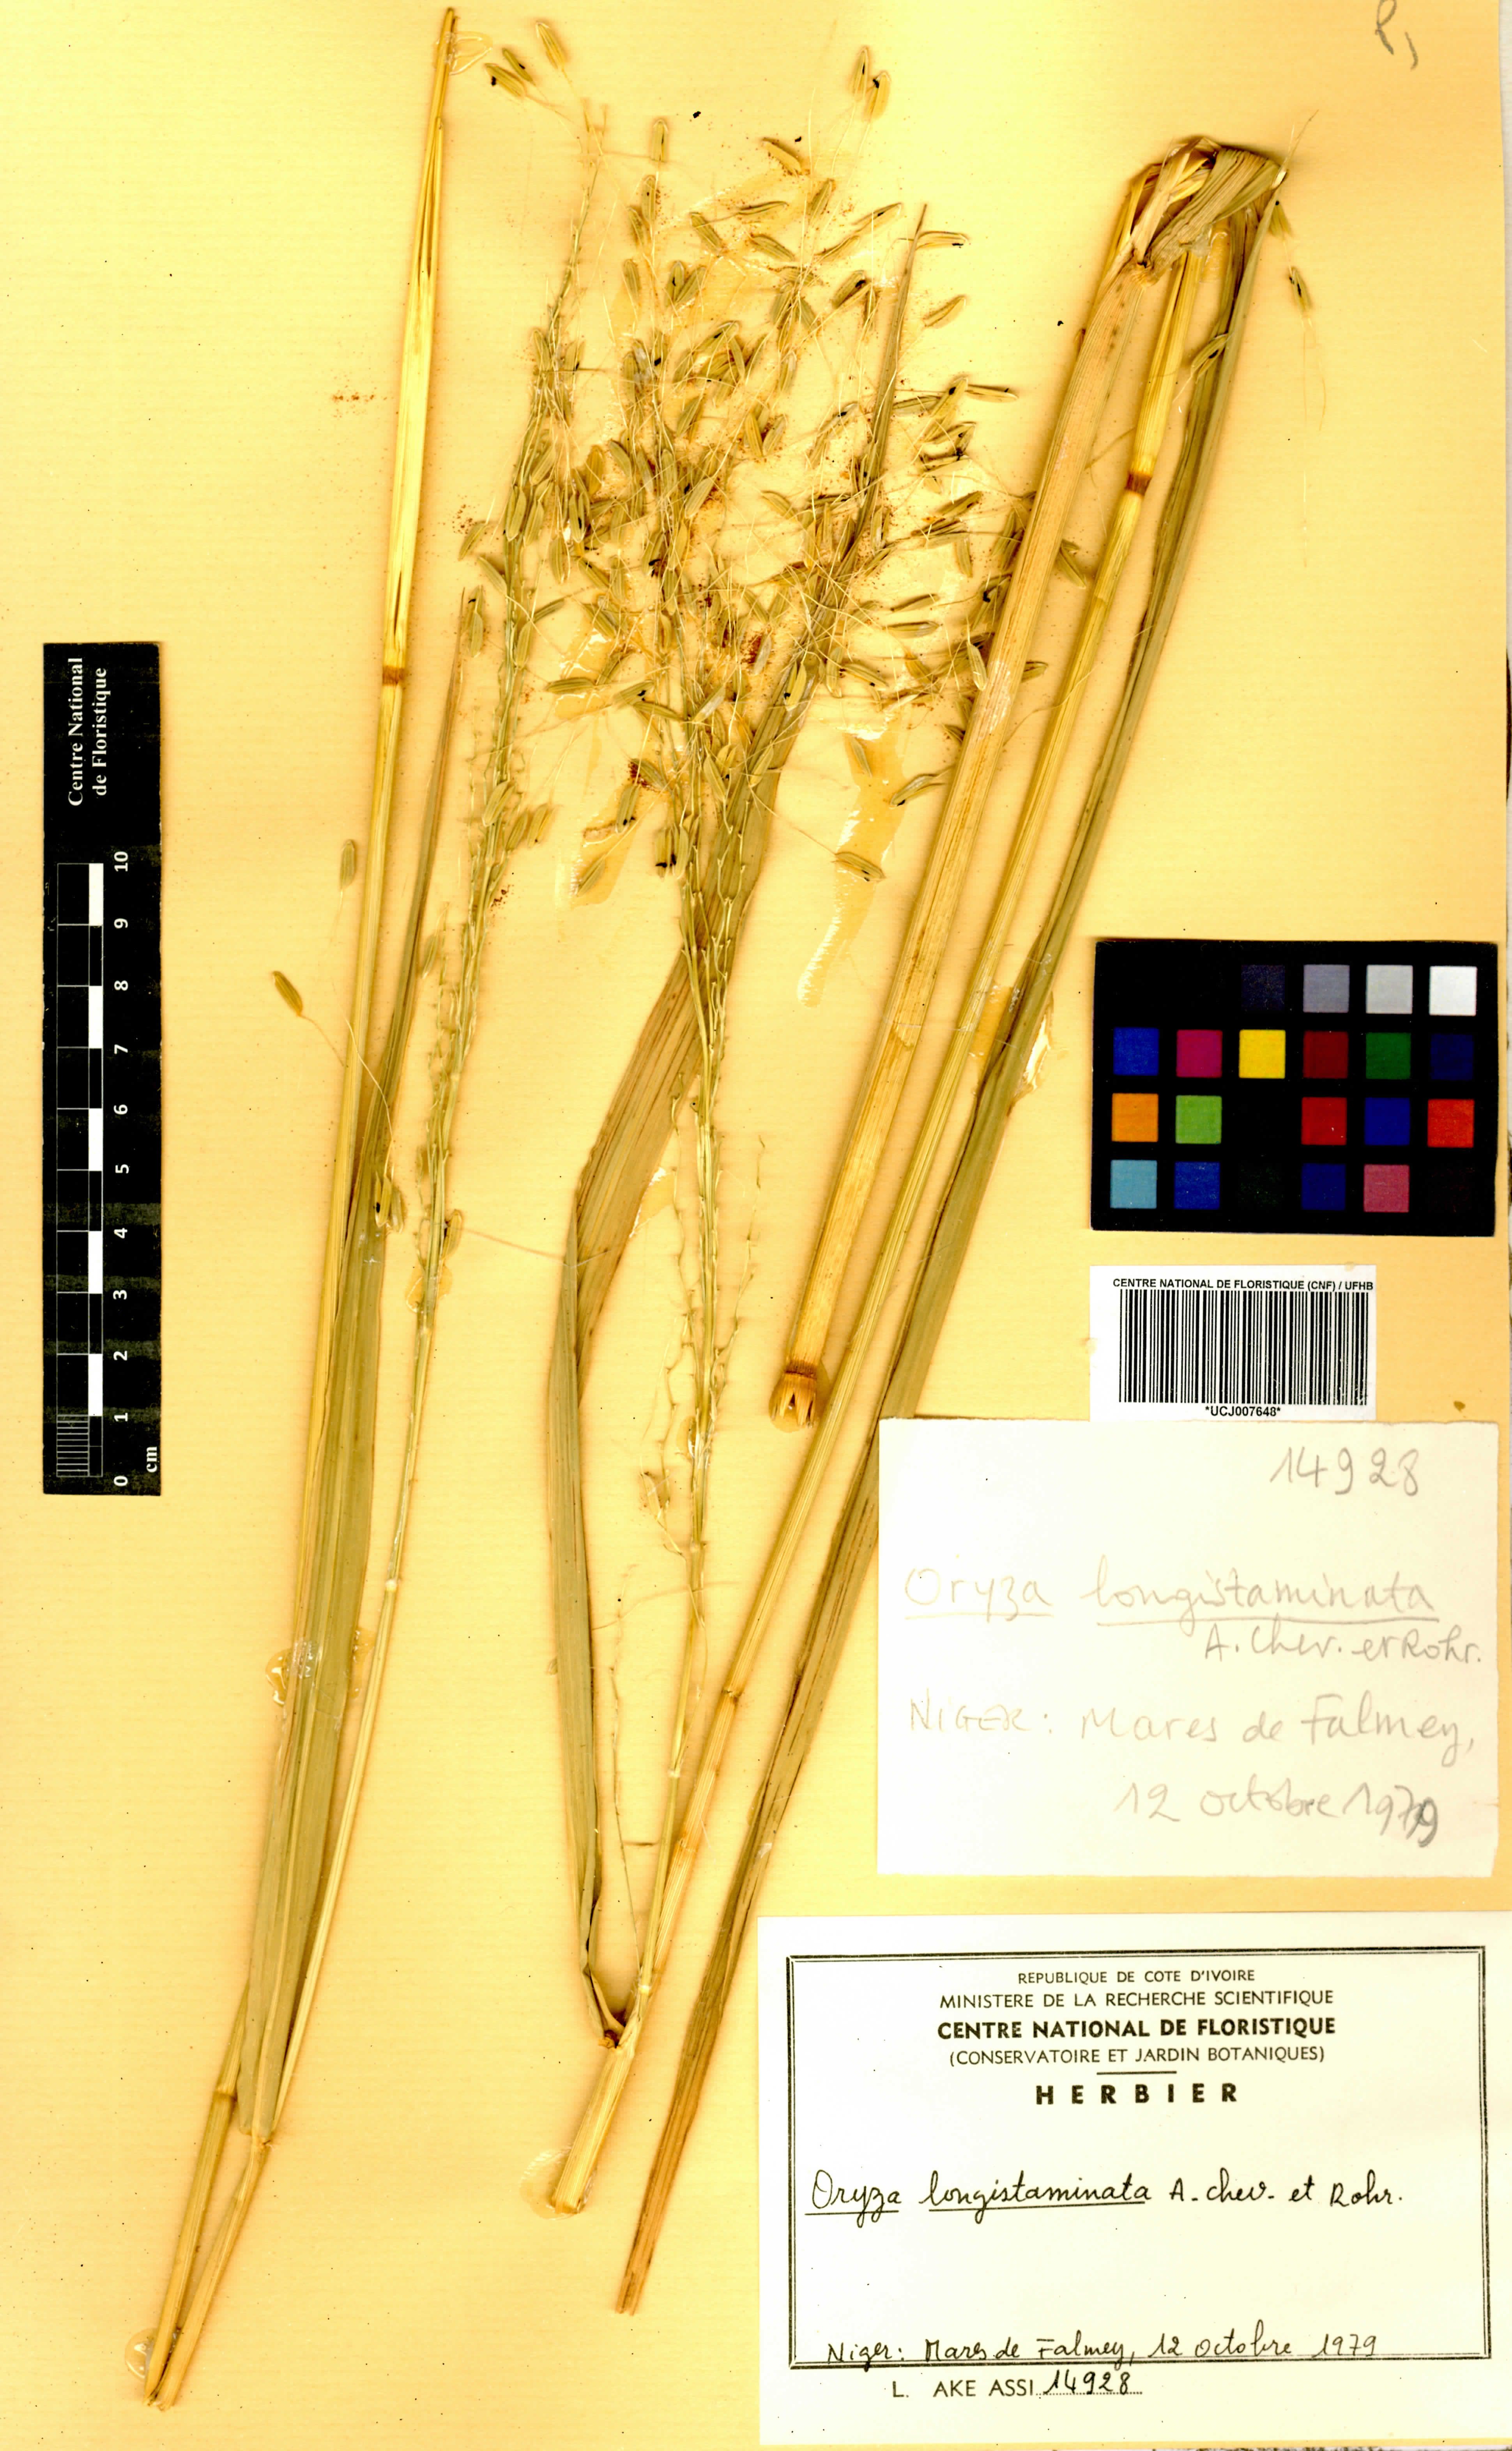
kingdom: Plantae
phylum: Tracheophyta
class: Liliopsida
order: Poales
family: Poaceae
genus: Oryza
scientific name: Oryza longistaminata
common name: Red rice
